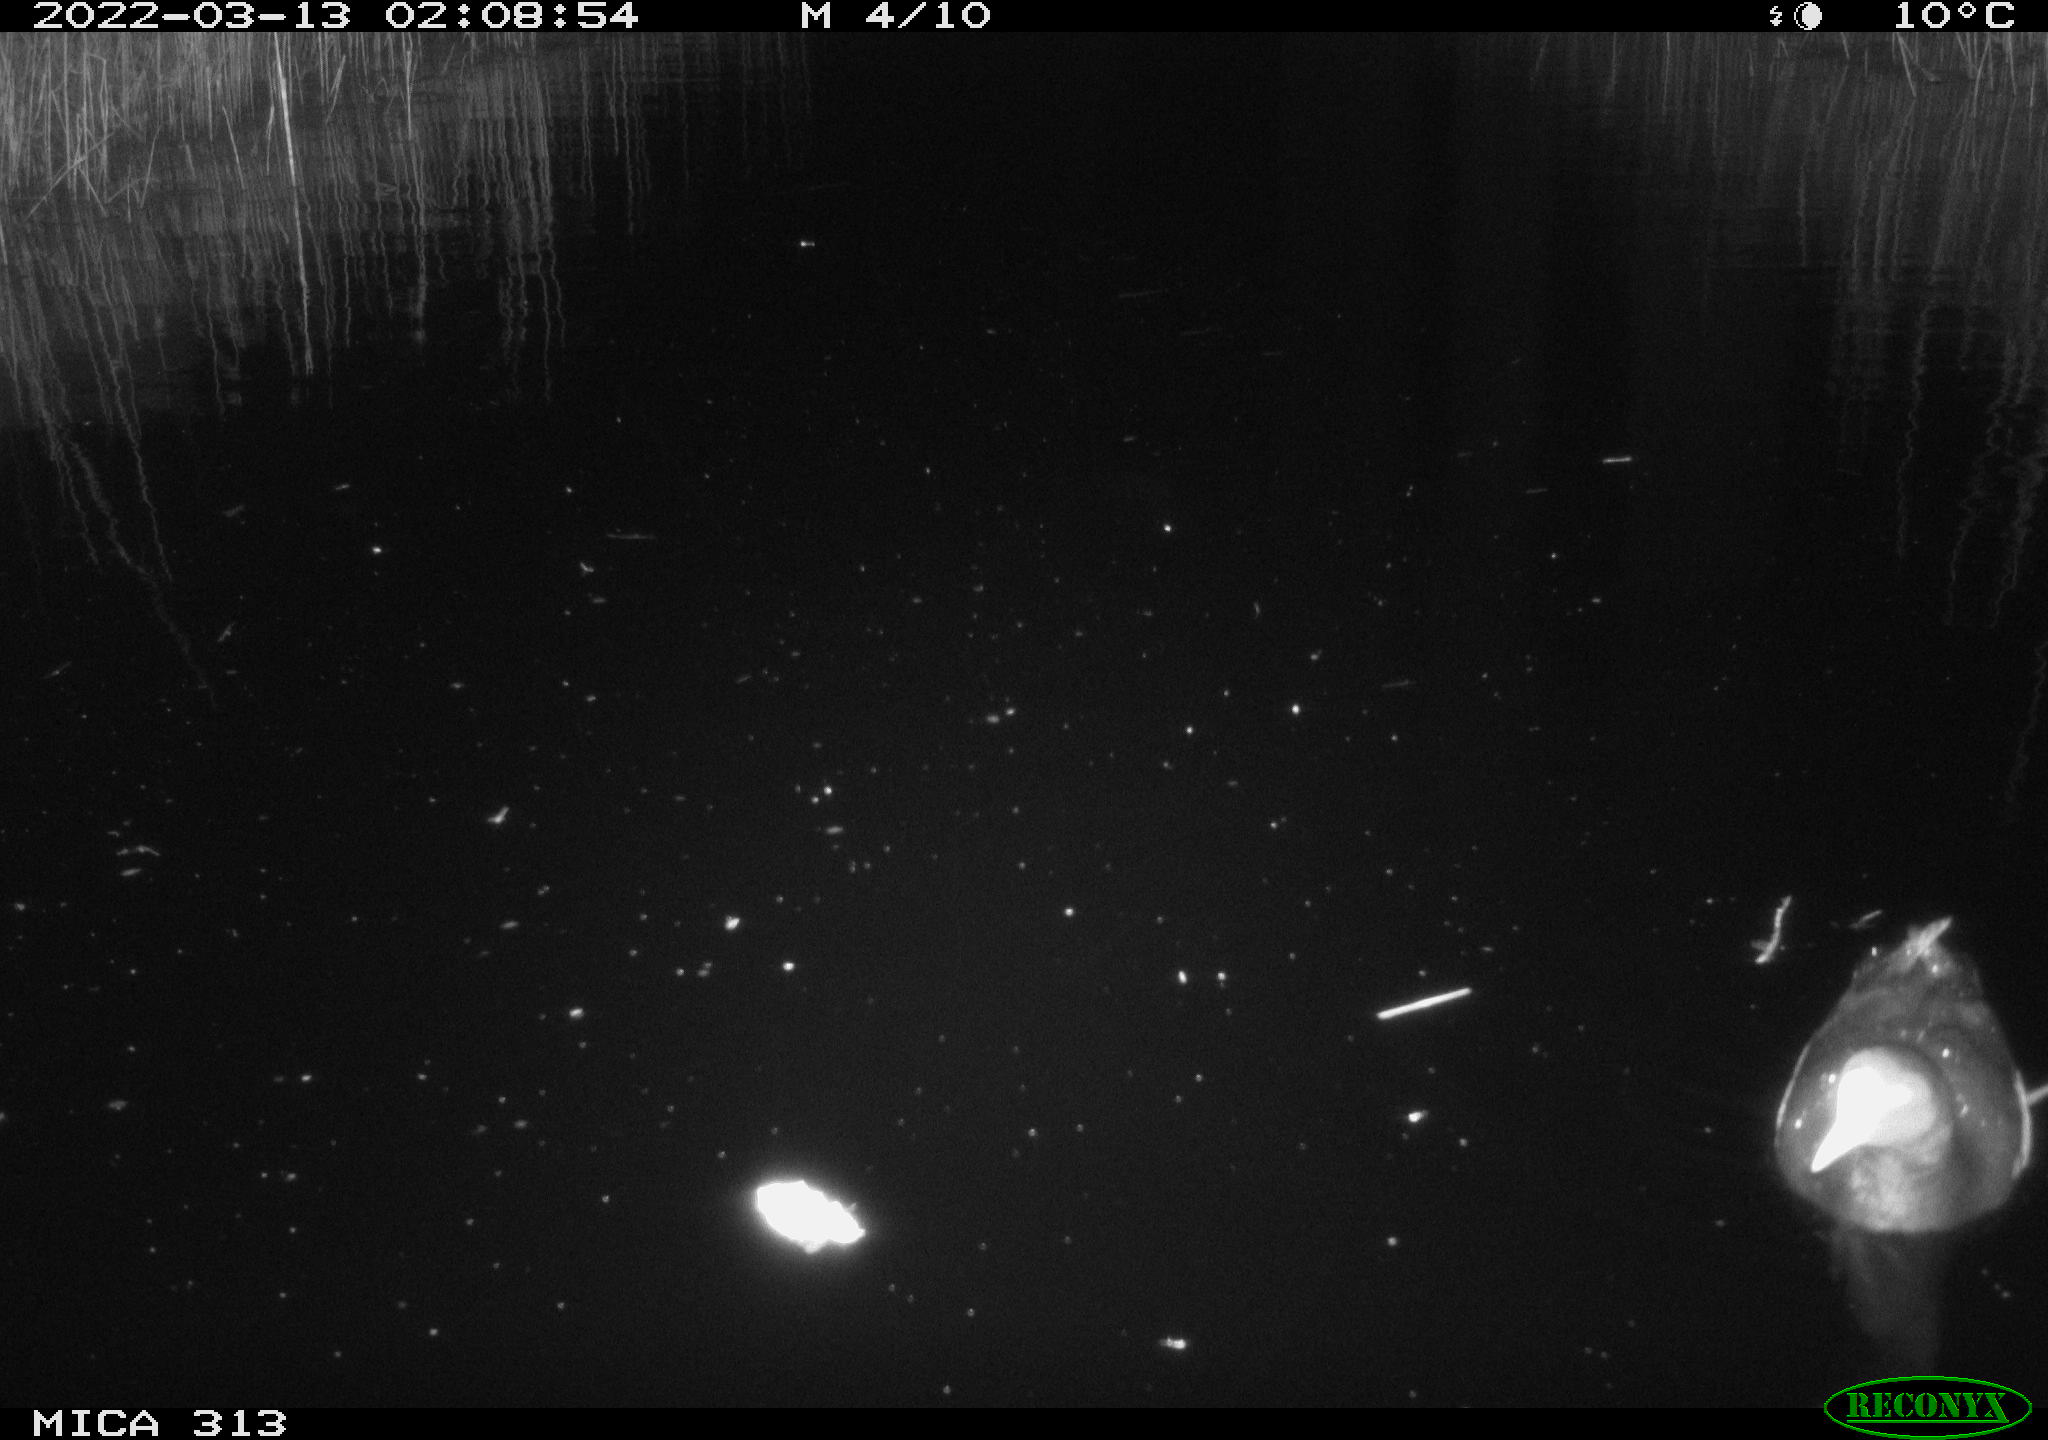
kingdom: Animalia
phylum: Chordata
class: Aves
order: Gruiformes
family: Rallidae
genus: Gallinula
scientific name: Gallinula chloropus
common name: Common moorhen
